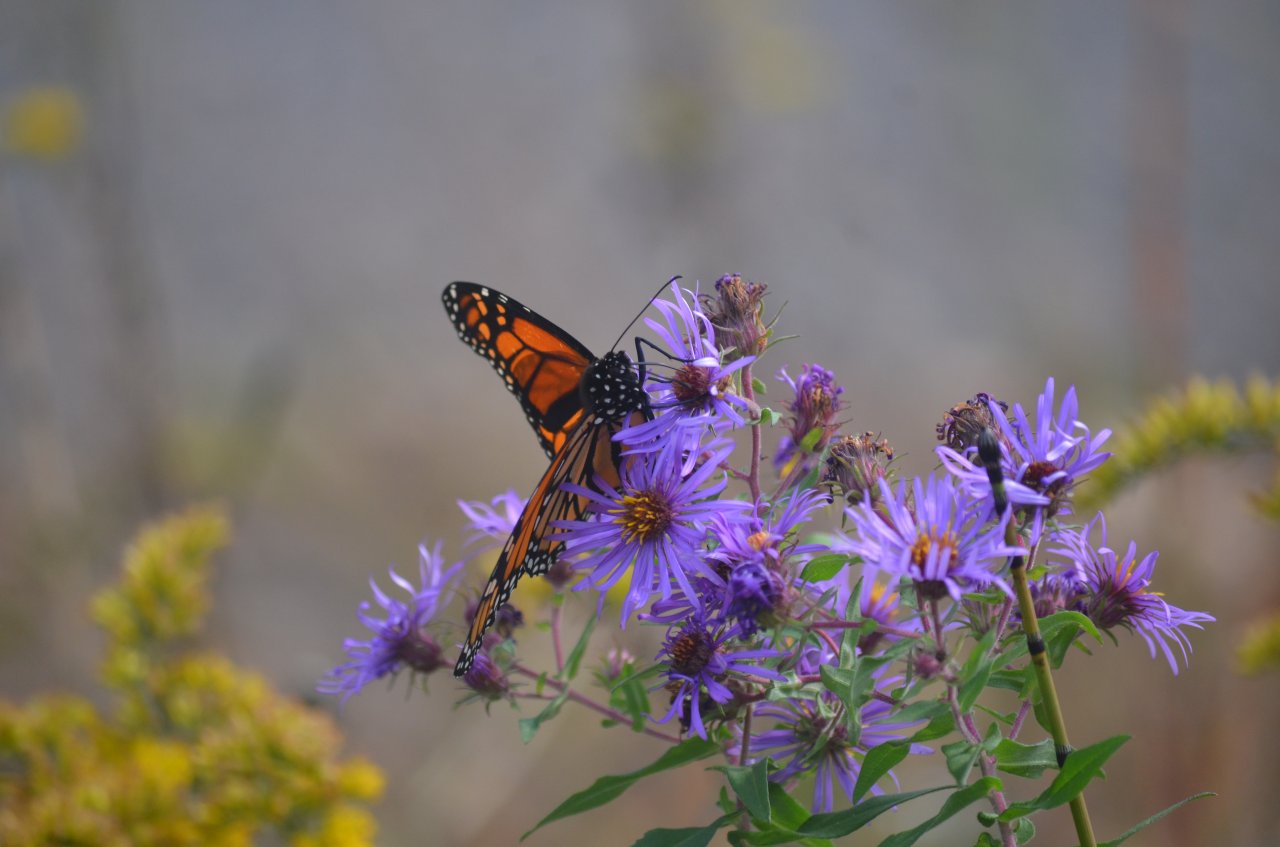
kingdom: Animalia
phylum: Arthropoda
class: Insecta
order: Lepidoptera
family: Nymphalidae
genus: Danaus
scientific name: Danaus plexippus
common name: Monarch
